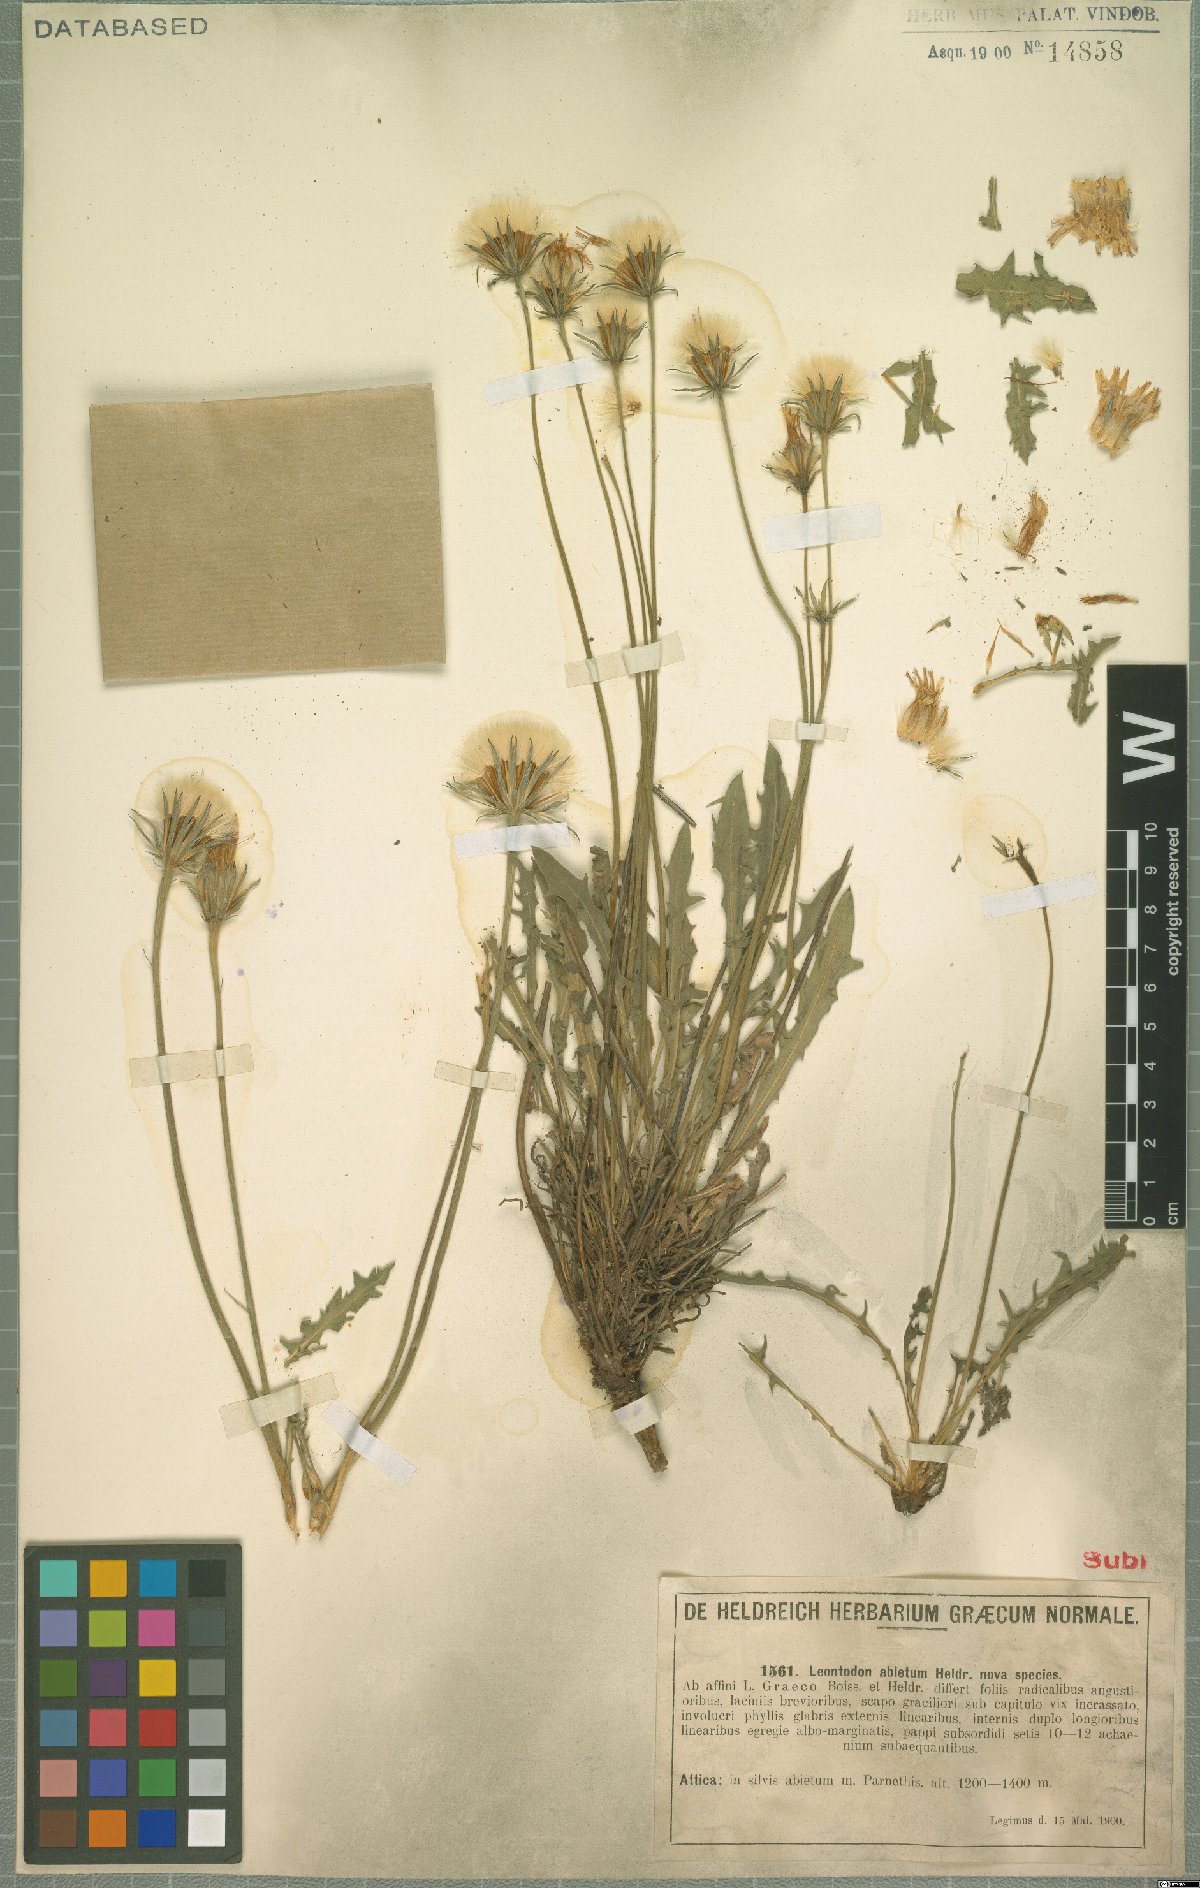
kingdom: Plantae
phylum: Tracheophyta
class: Magnoliopsida
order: Asterales
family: Asteraceae
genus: Leontodon
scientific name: Leontodon
